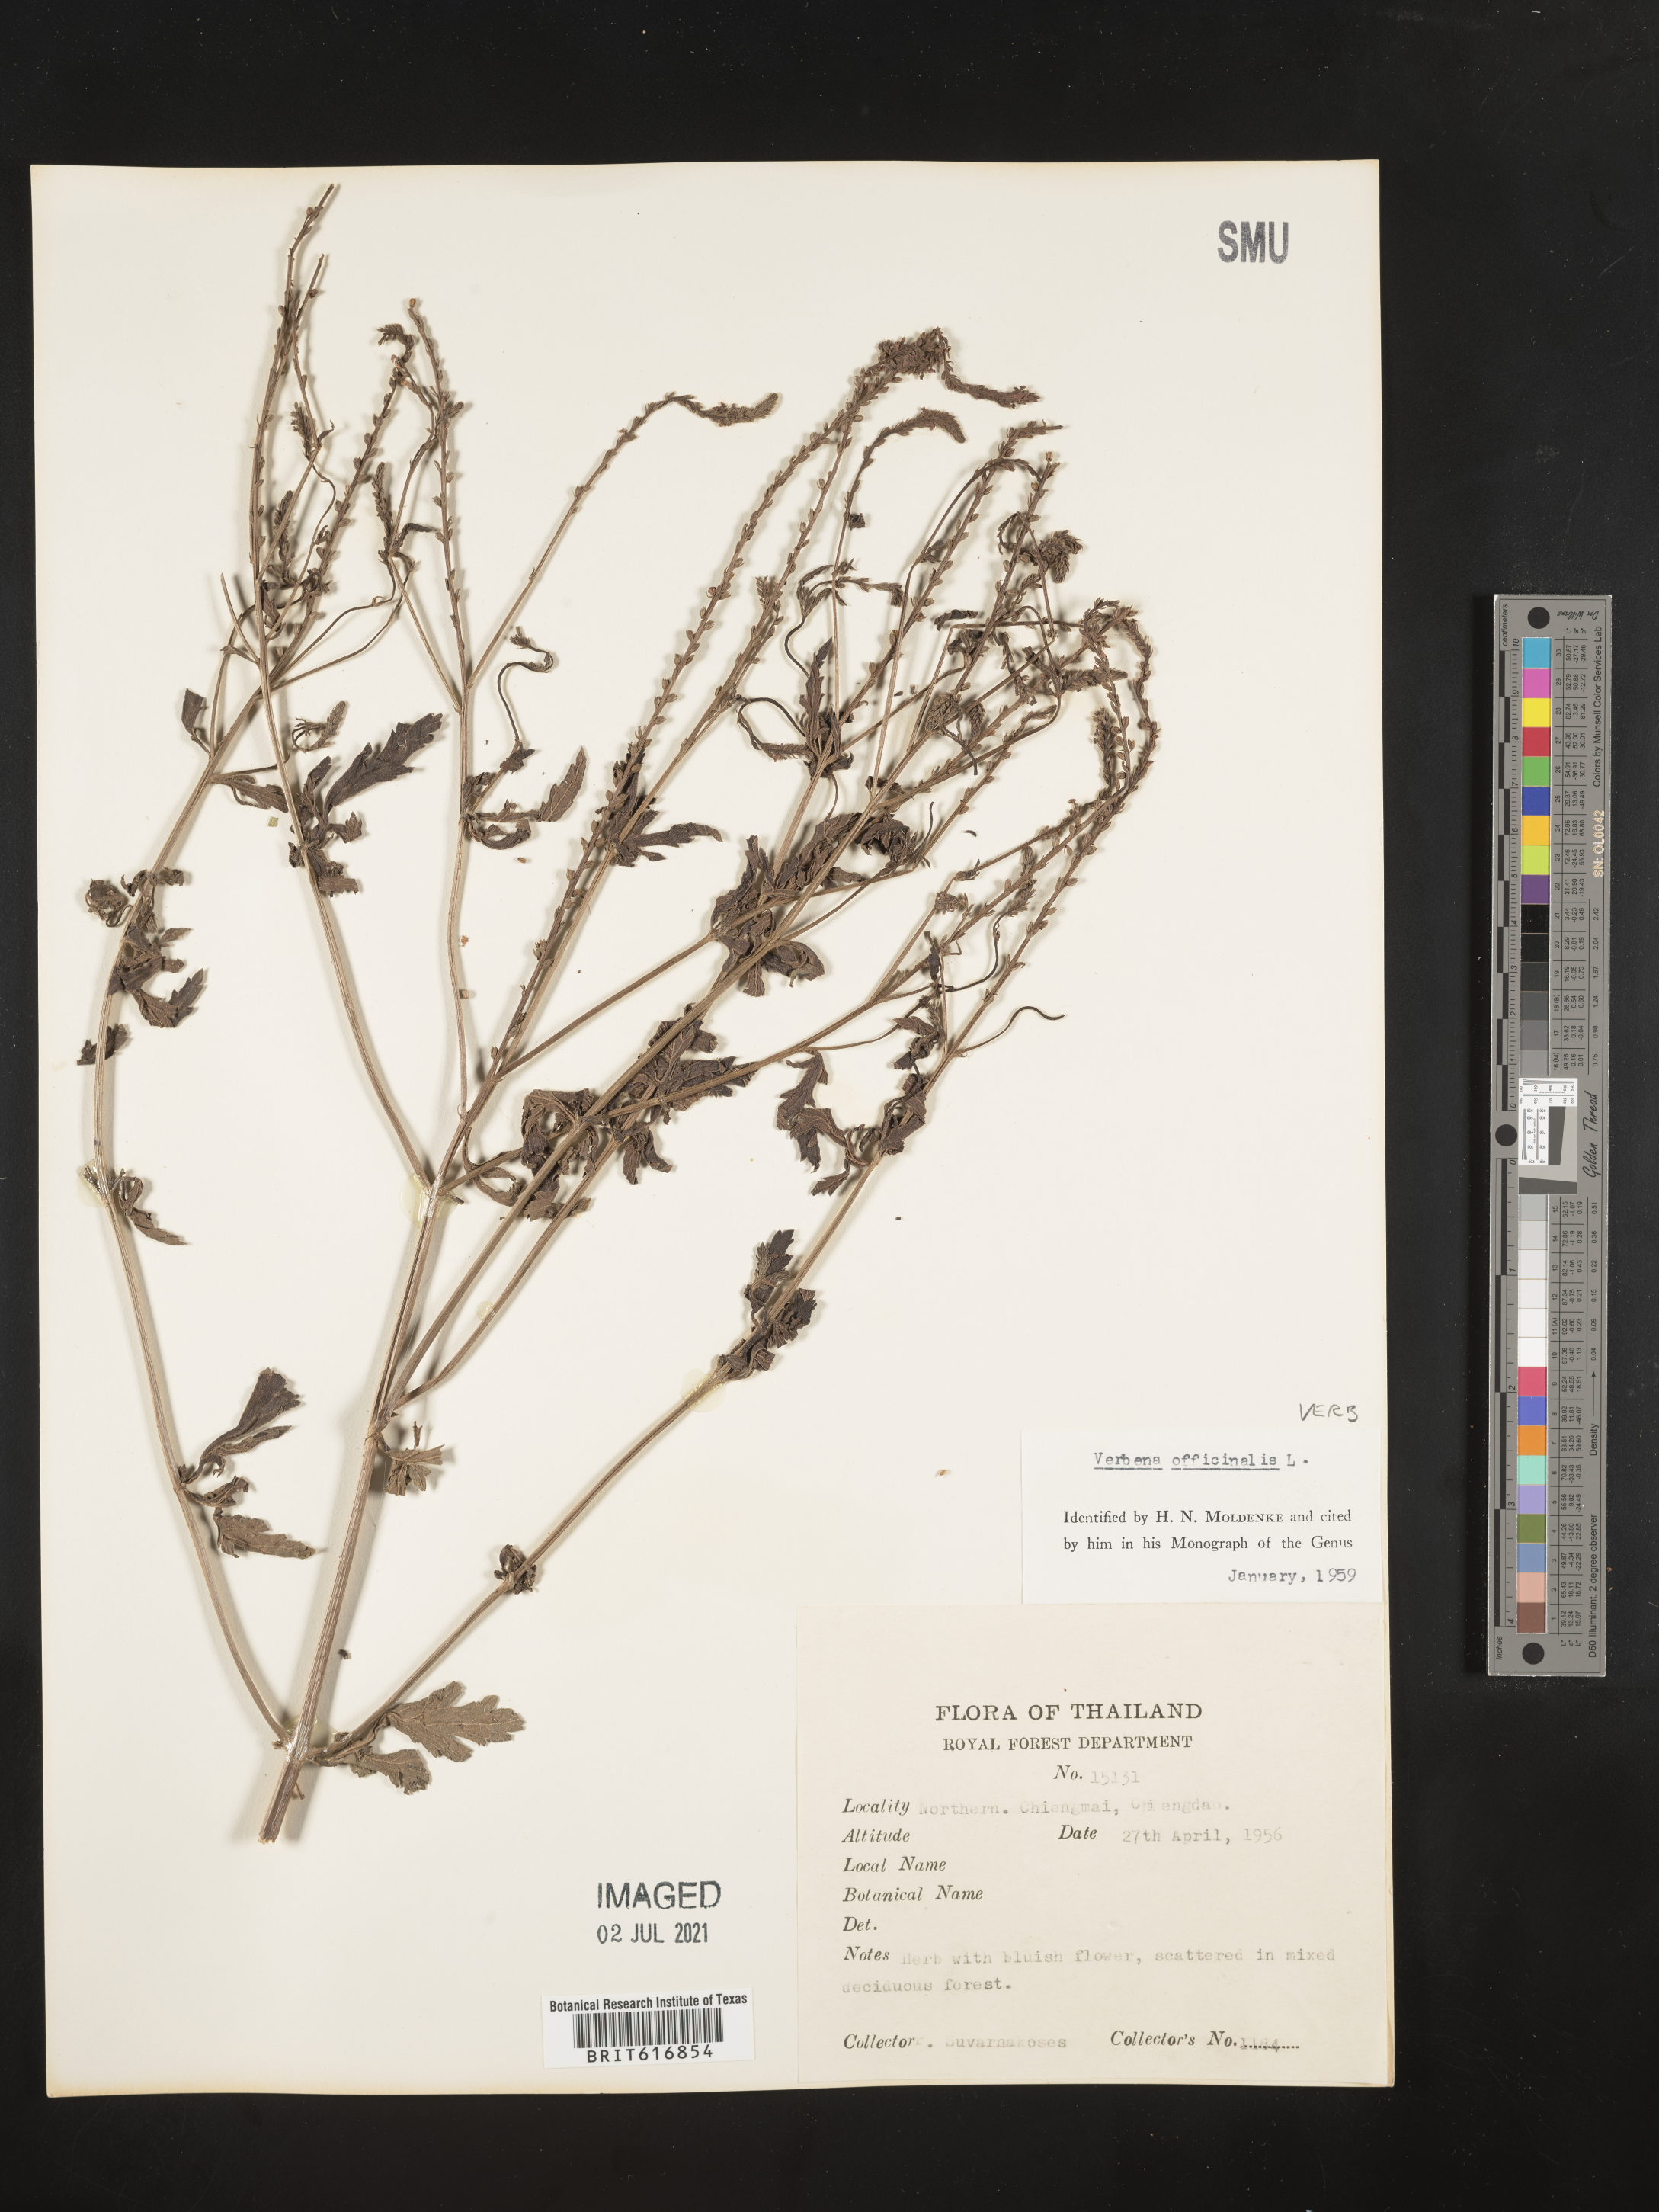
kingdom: Plantae
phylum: Tracheophyta
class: Magnoliopsida
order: Lamiales
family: Verbenaceae
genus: Verbena
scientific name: Verbena officinalis
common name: Vervain
